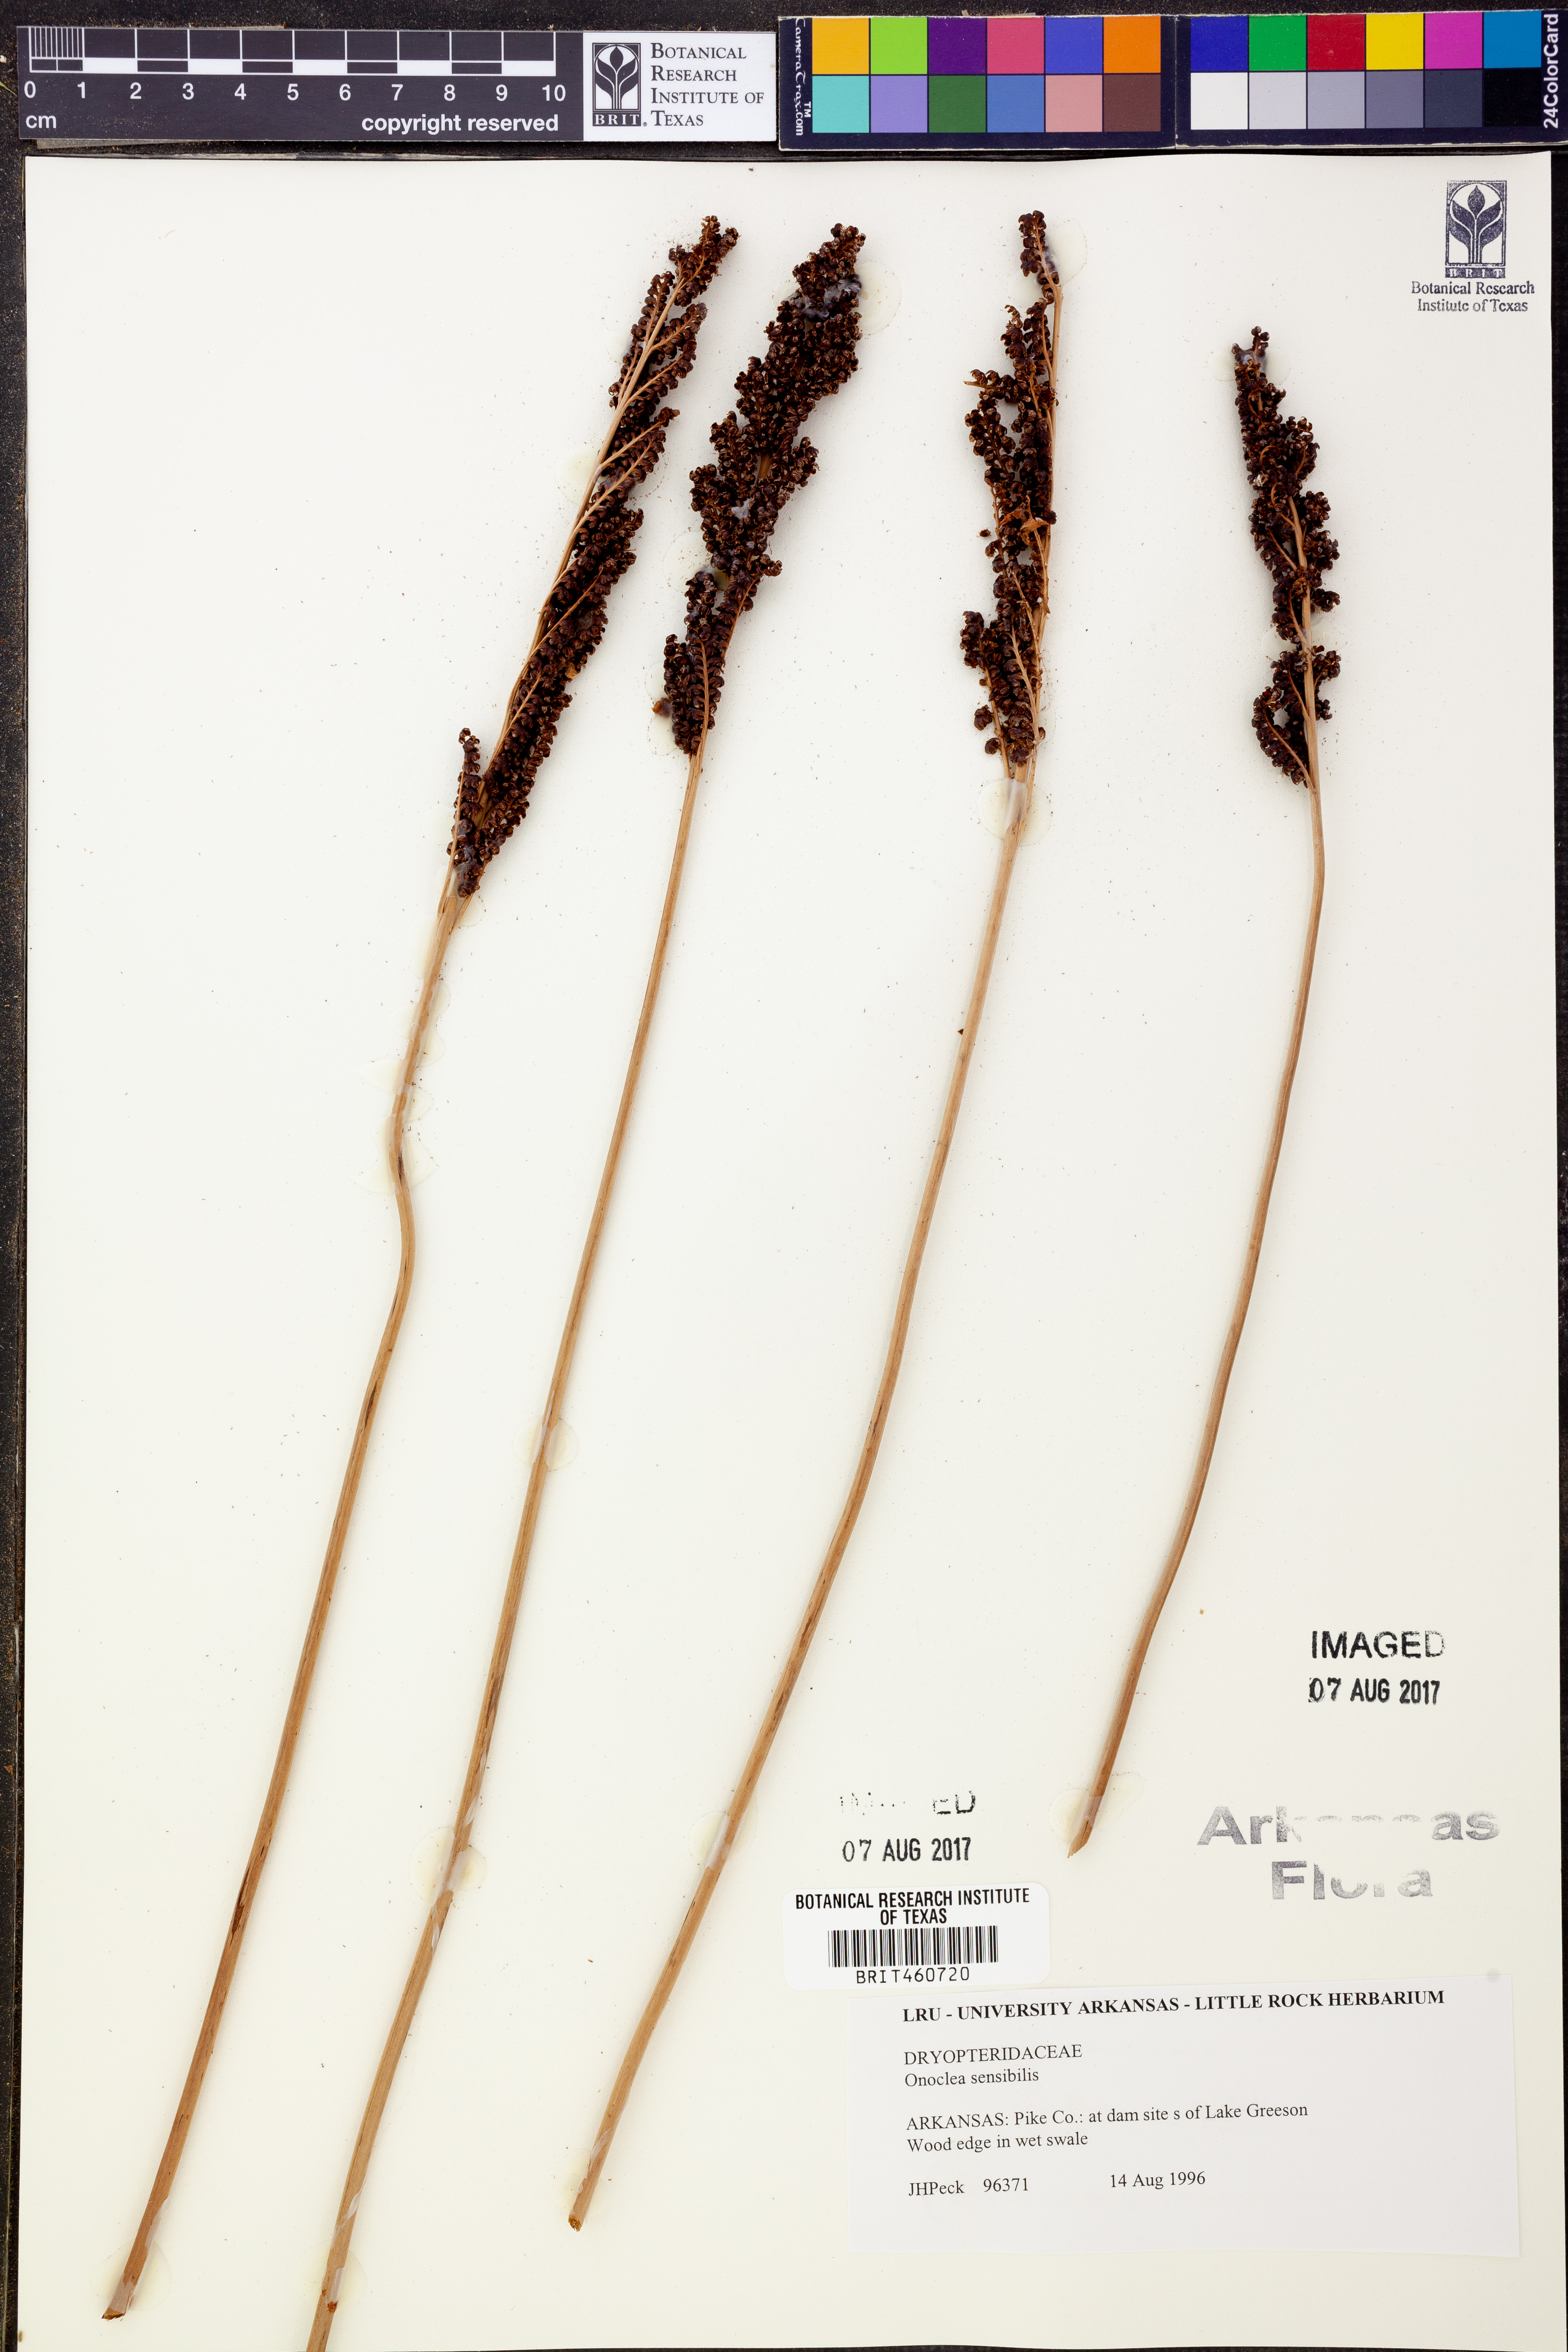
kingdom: Plantae
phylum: Tracheophyta
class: Polypodiopsida
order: Polypodiales
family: Onocleaceae
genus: Onoclea
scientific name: Onoclea sensibilis
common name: Sensitive fern
